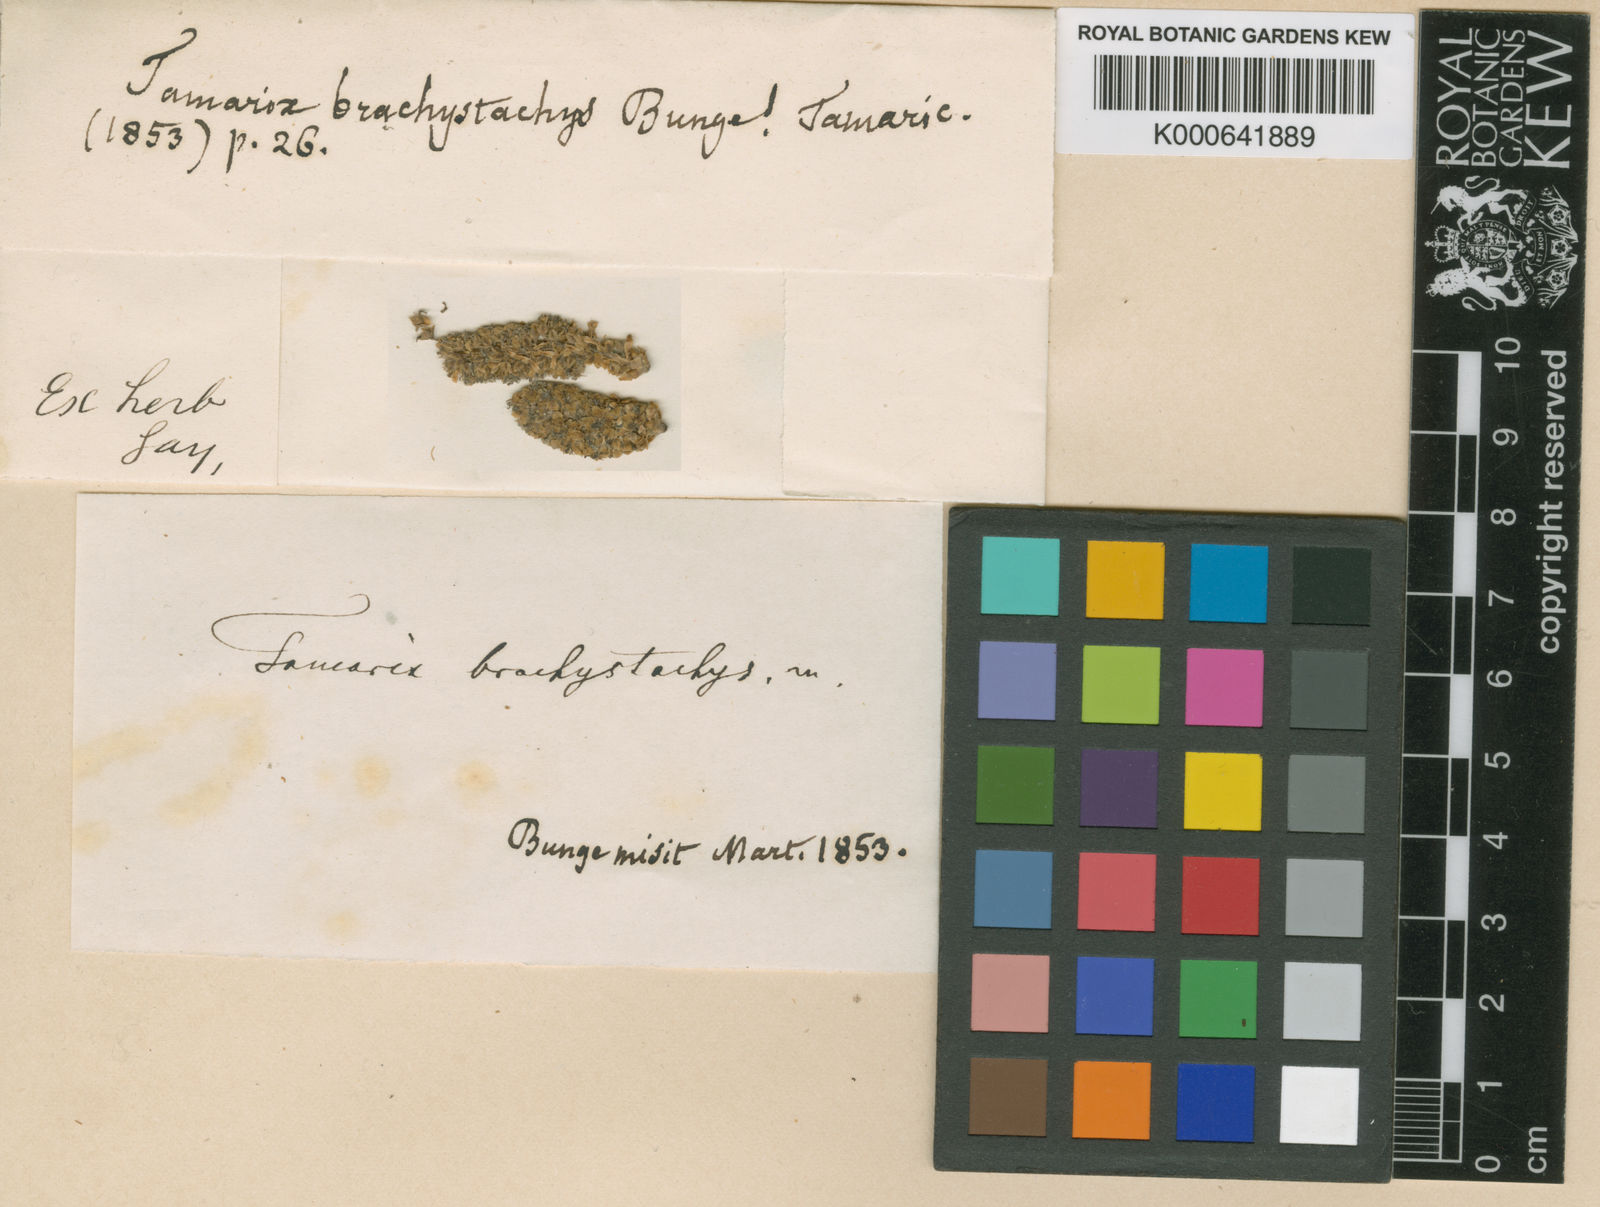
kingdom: Plantae
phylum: Tracheophyta
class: Magnoliopsida
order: Caryophyllales
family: Tamaricaceae
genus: Tamarix
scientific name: Tamarix brachystachys
